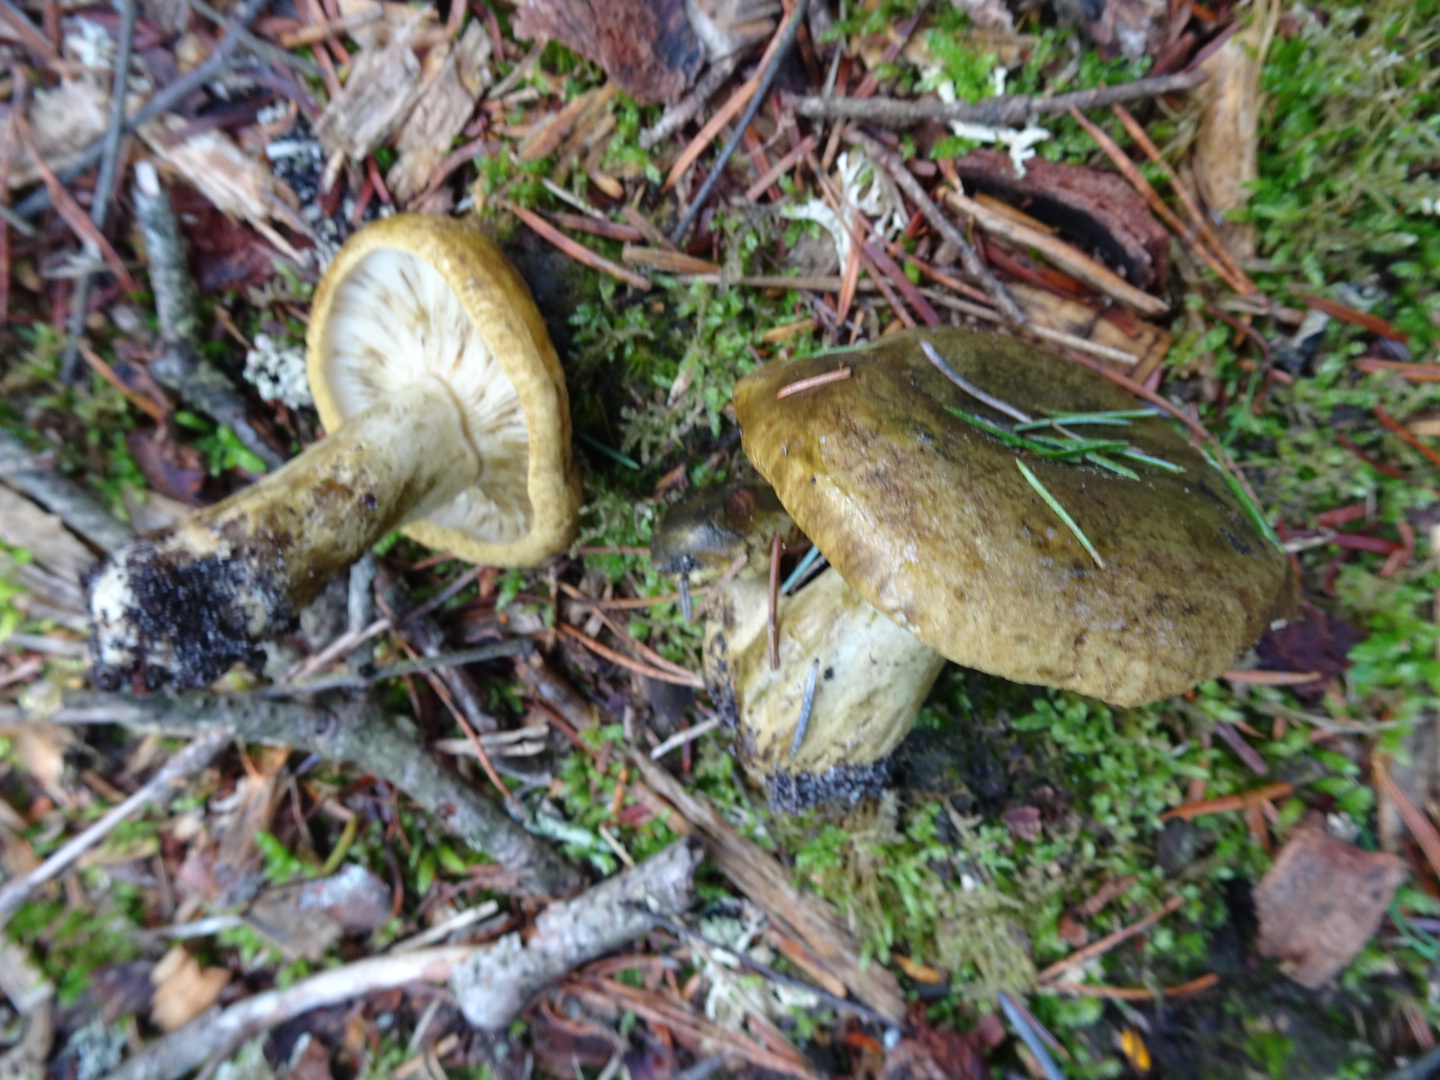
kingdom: Fungi
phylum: Basidiomycota
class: Agaricomycetes
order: Boletales
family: Paxillaceae
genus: Paxillus
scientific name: Paxillus involutus
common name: almindelig netbladhat
